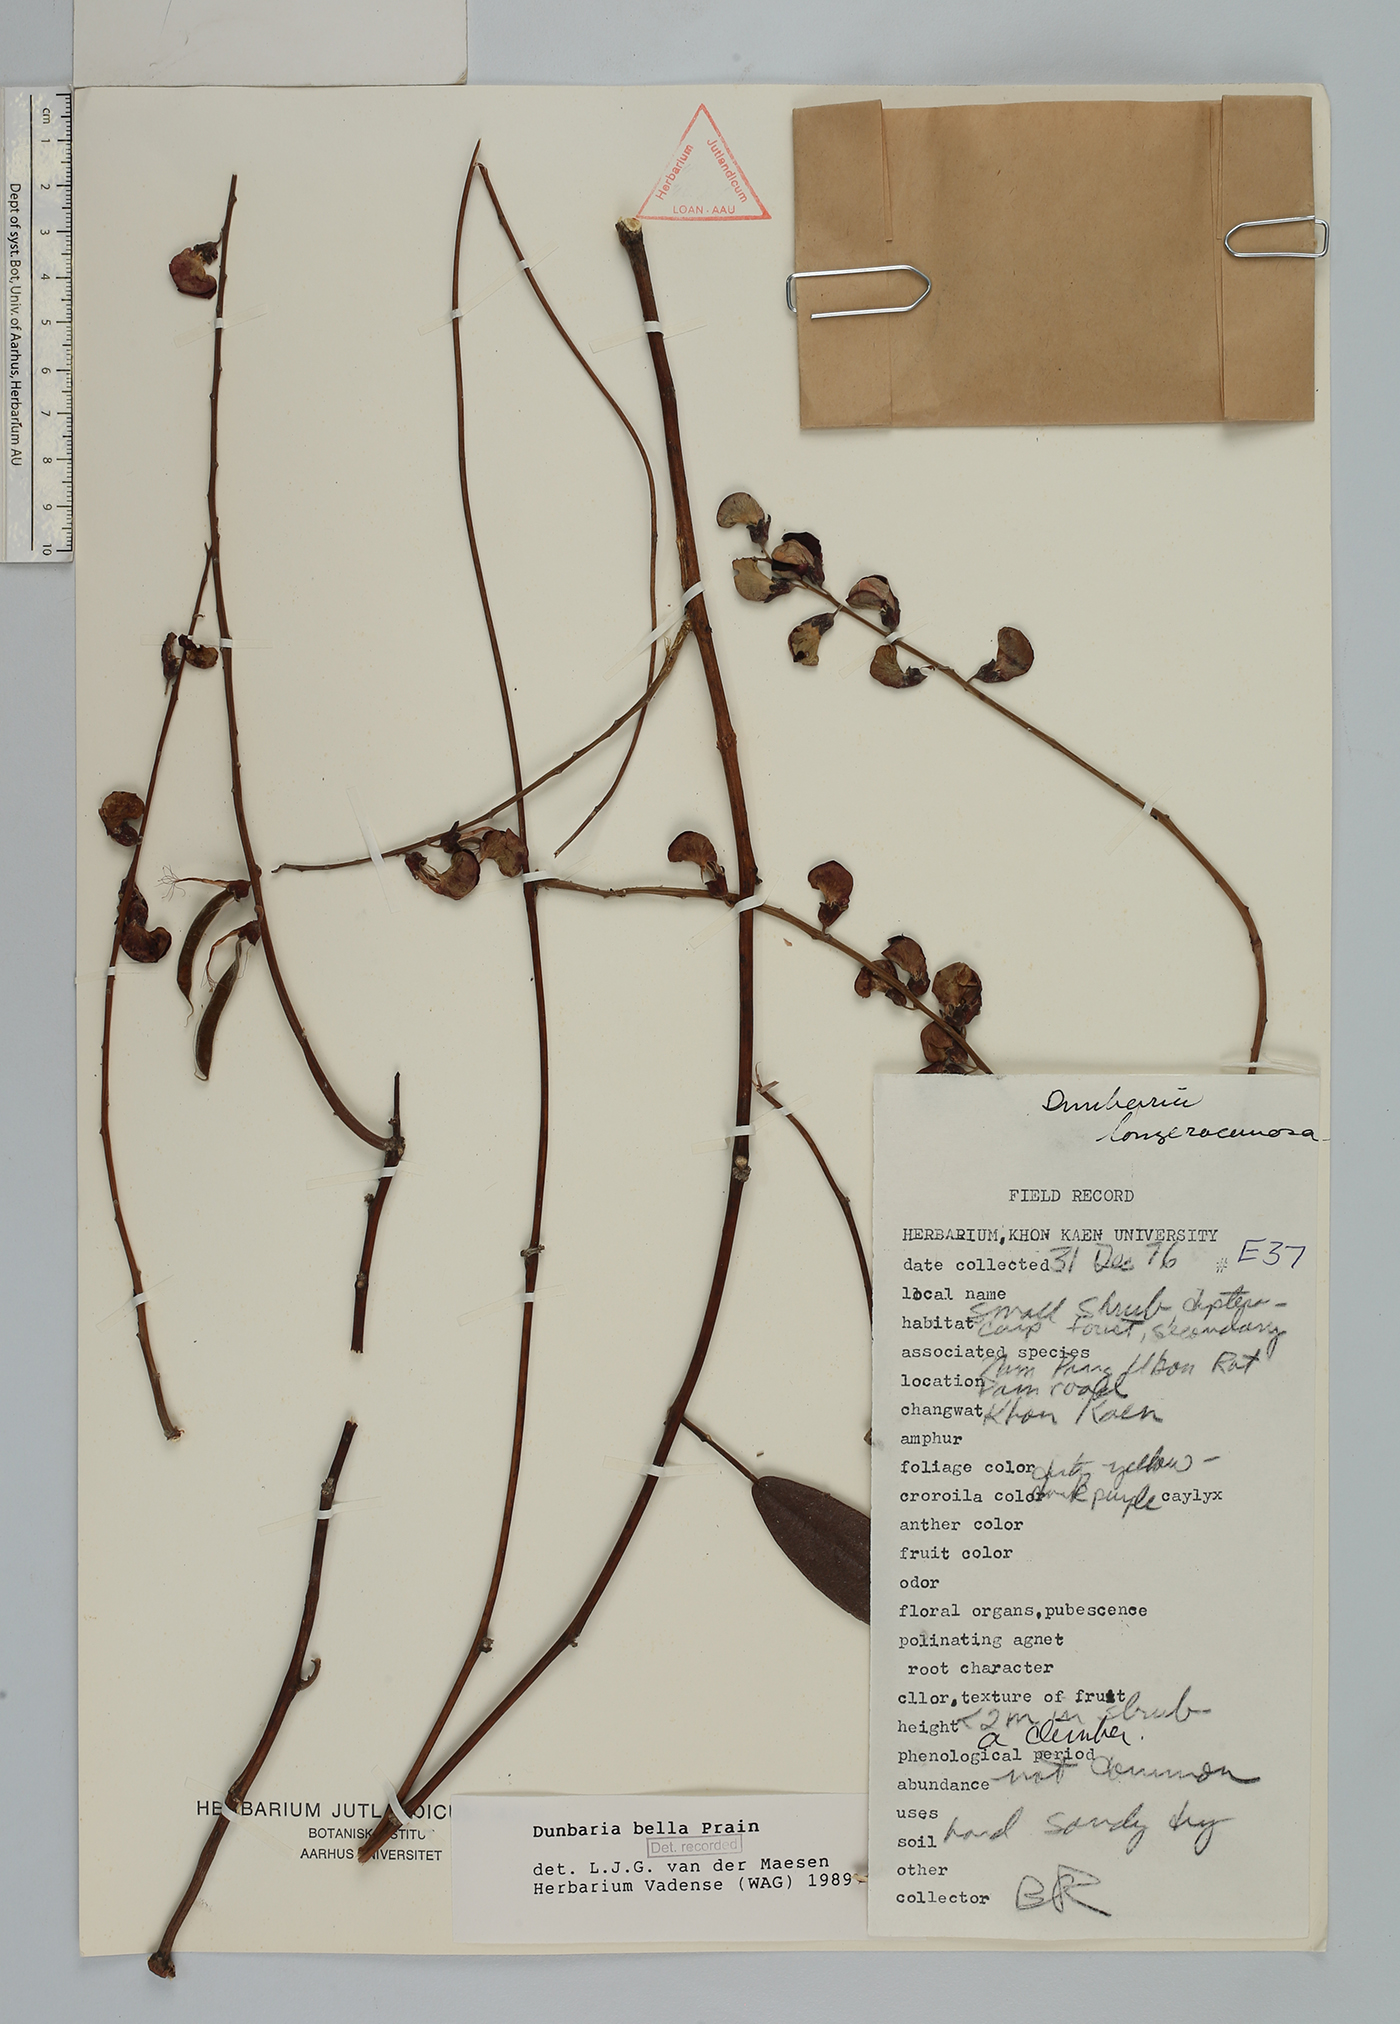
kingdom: Plantae
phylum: Tracheophyta
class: Magnoliopsida
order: Fabales
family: Fabaceae
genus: Dunbaria
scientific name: Dunbaria bella
